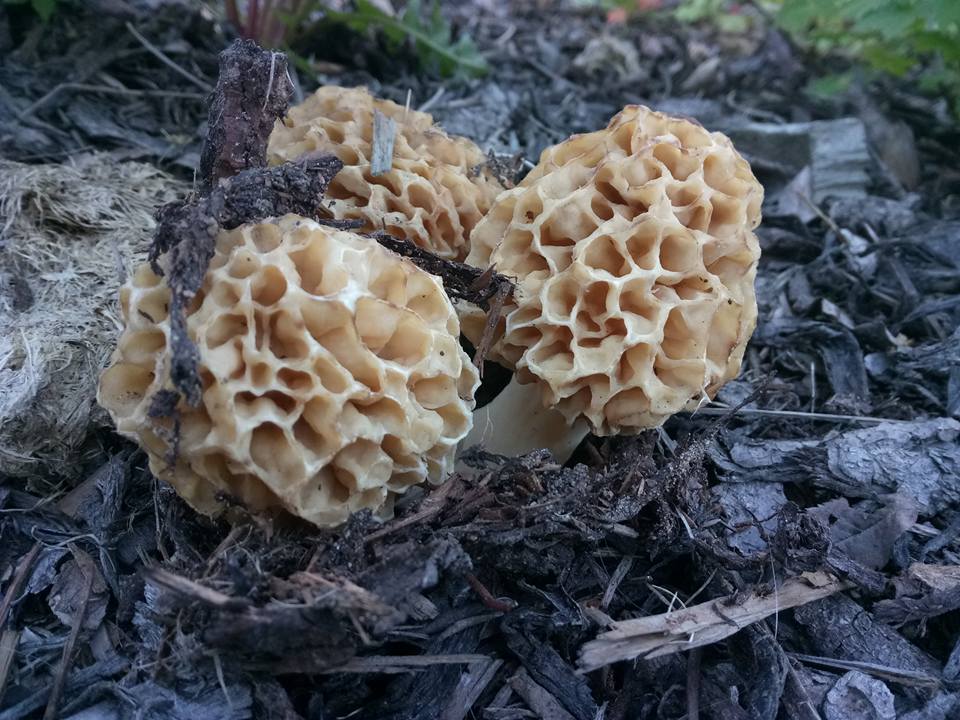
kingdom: Fungi
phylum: Ascomycota
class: Pezizomycetes
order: Pezizales
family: Morchellaceae
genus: Morchella
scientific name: Morchella esculenta
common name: Morel
